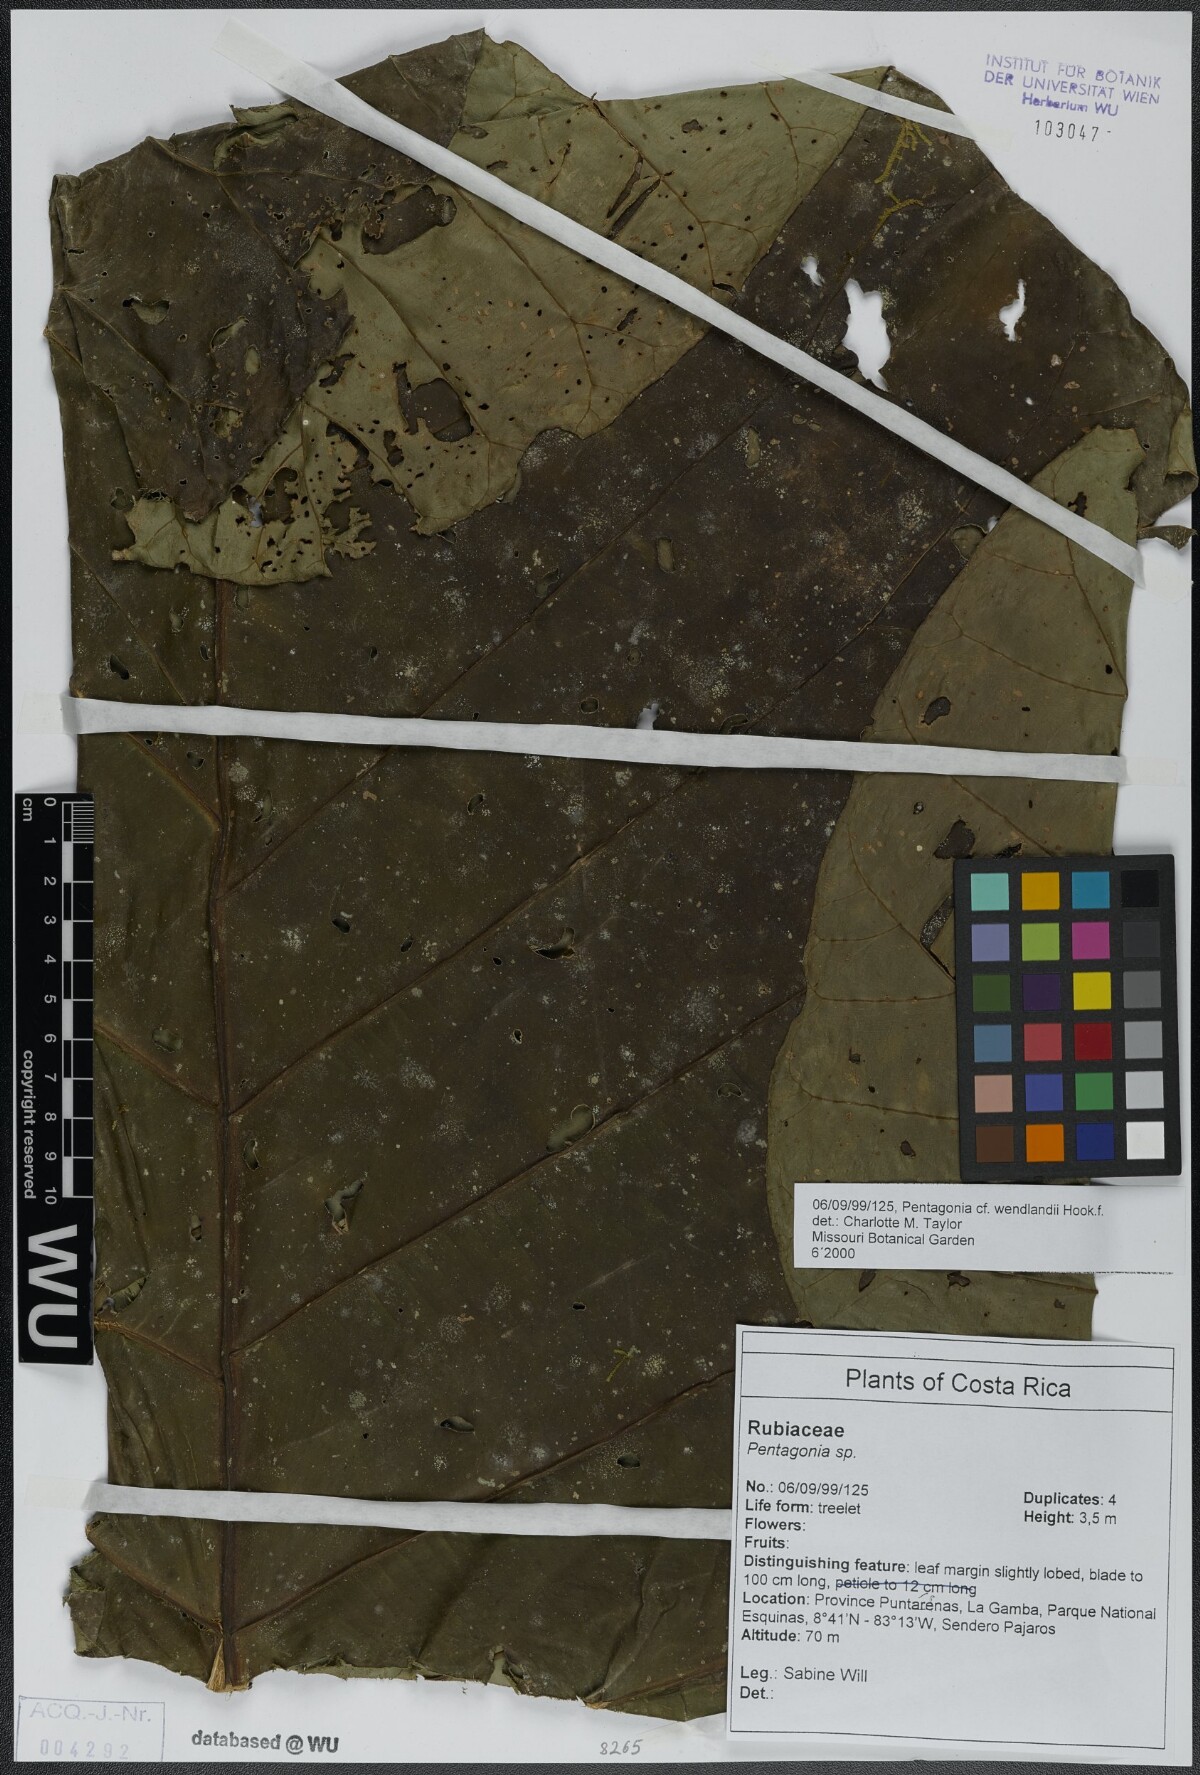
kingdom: Plantae
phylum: Tracheophyta
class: Magnoliopsida
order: Gentianales
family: Rubiaceae
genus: Pentagonia
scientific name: Pentagonia wendlandii
